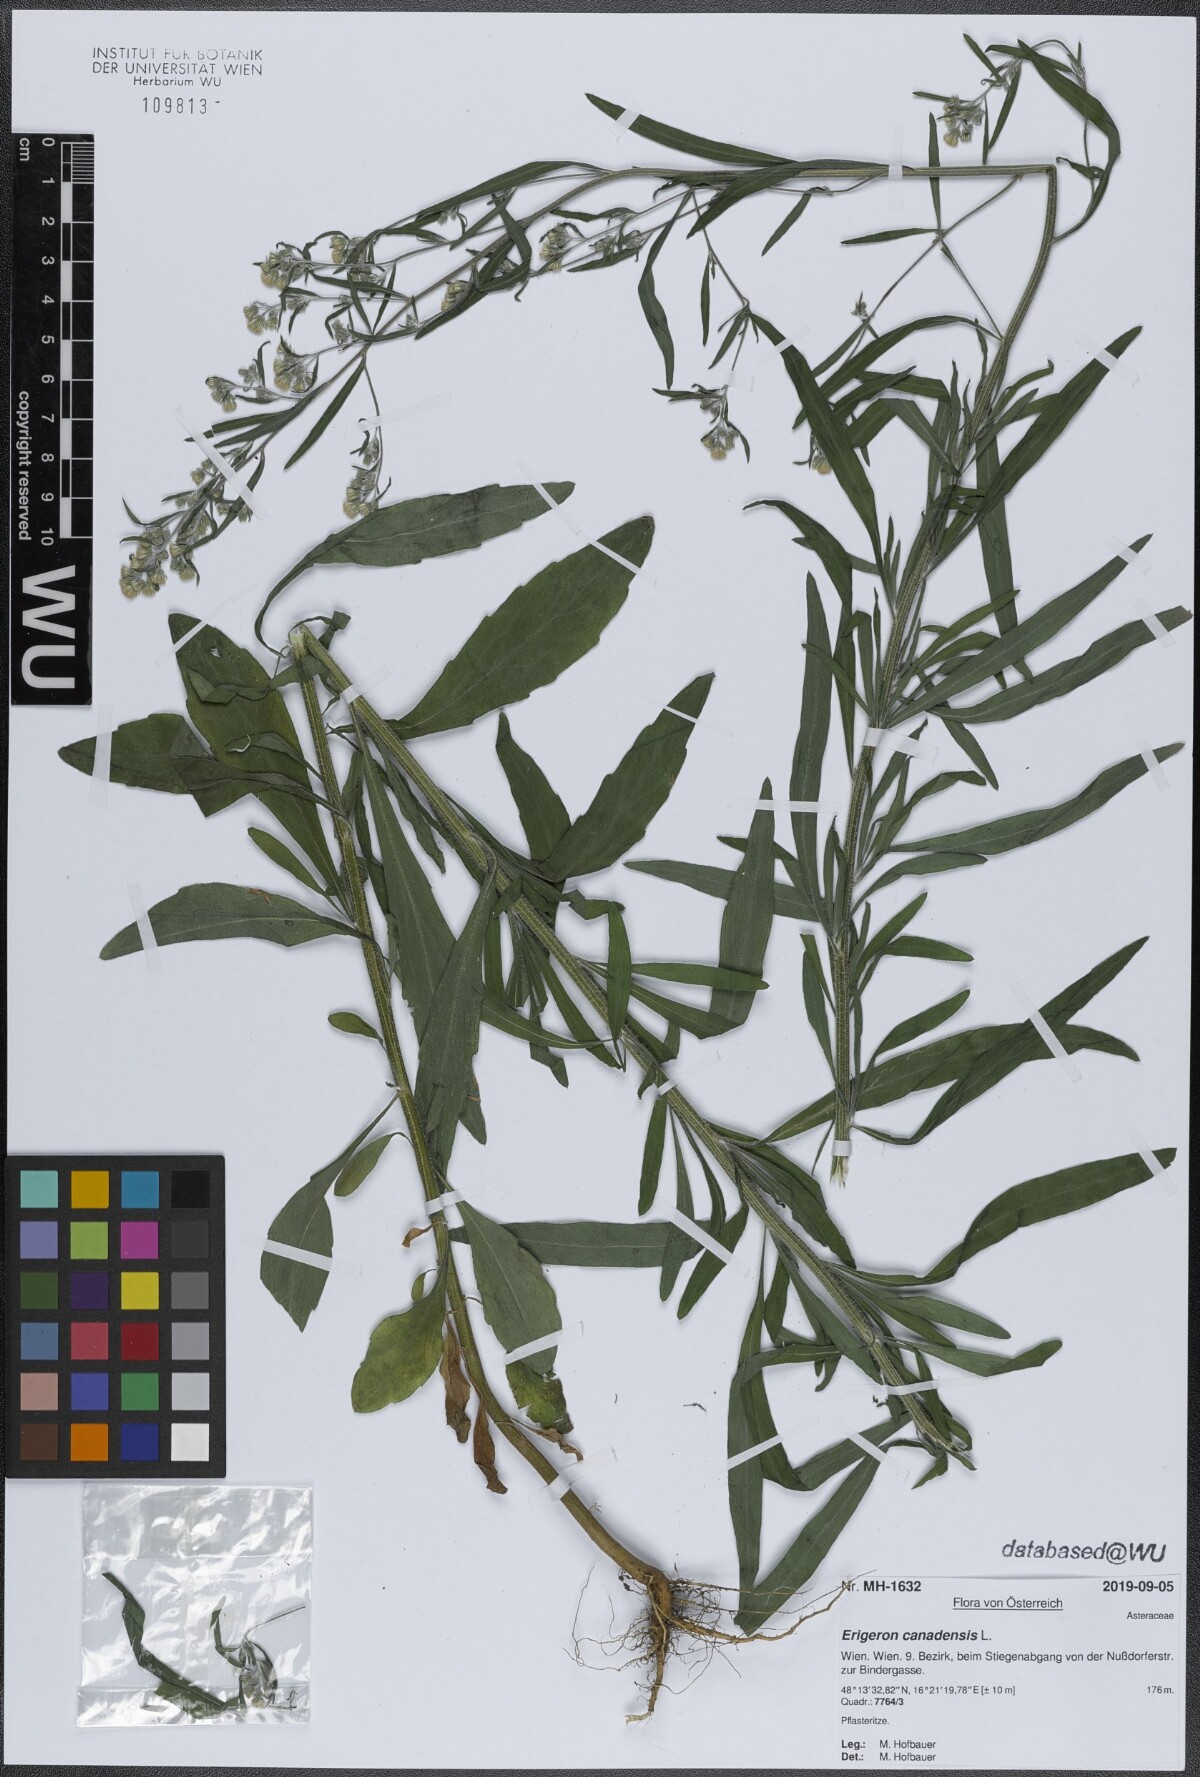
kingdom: Plantae
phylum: Tracheophyta
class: Magnoliopsida
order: Asterales
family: Asteraceae
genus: Erigeron
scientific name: Erigeron canadensis
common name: Canadian fleabane
